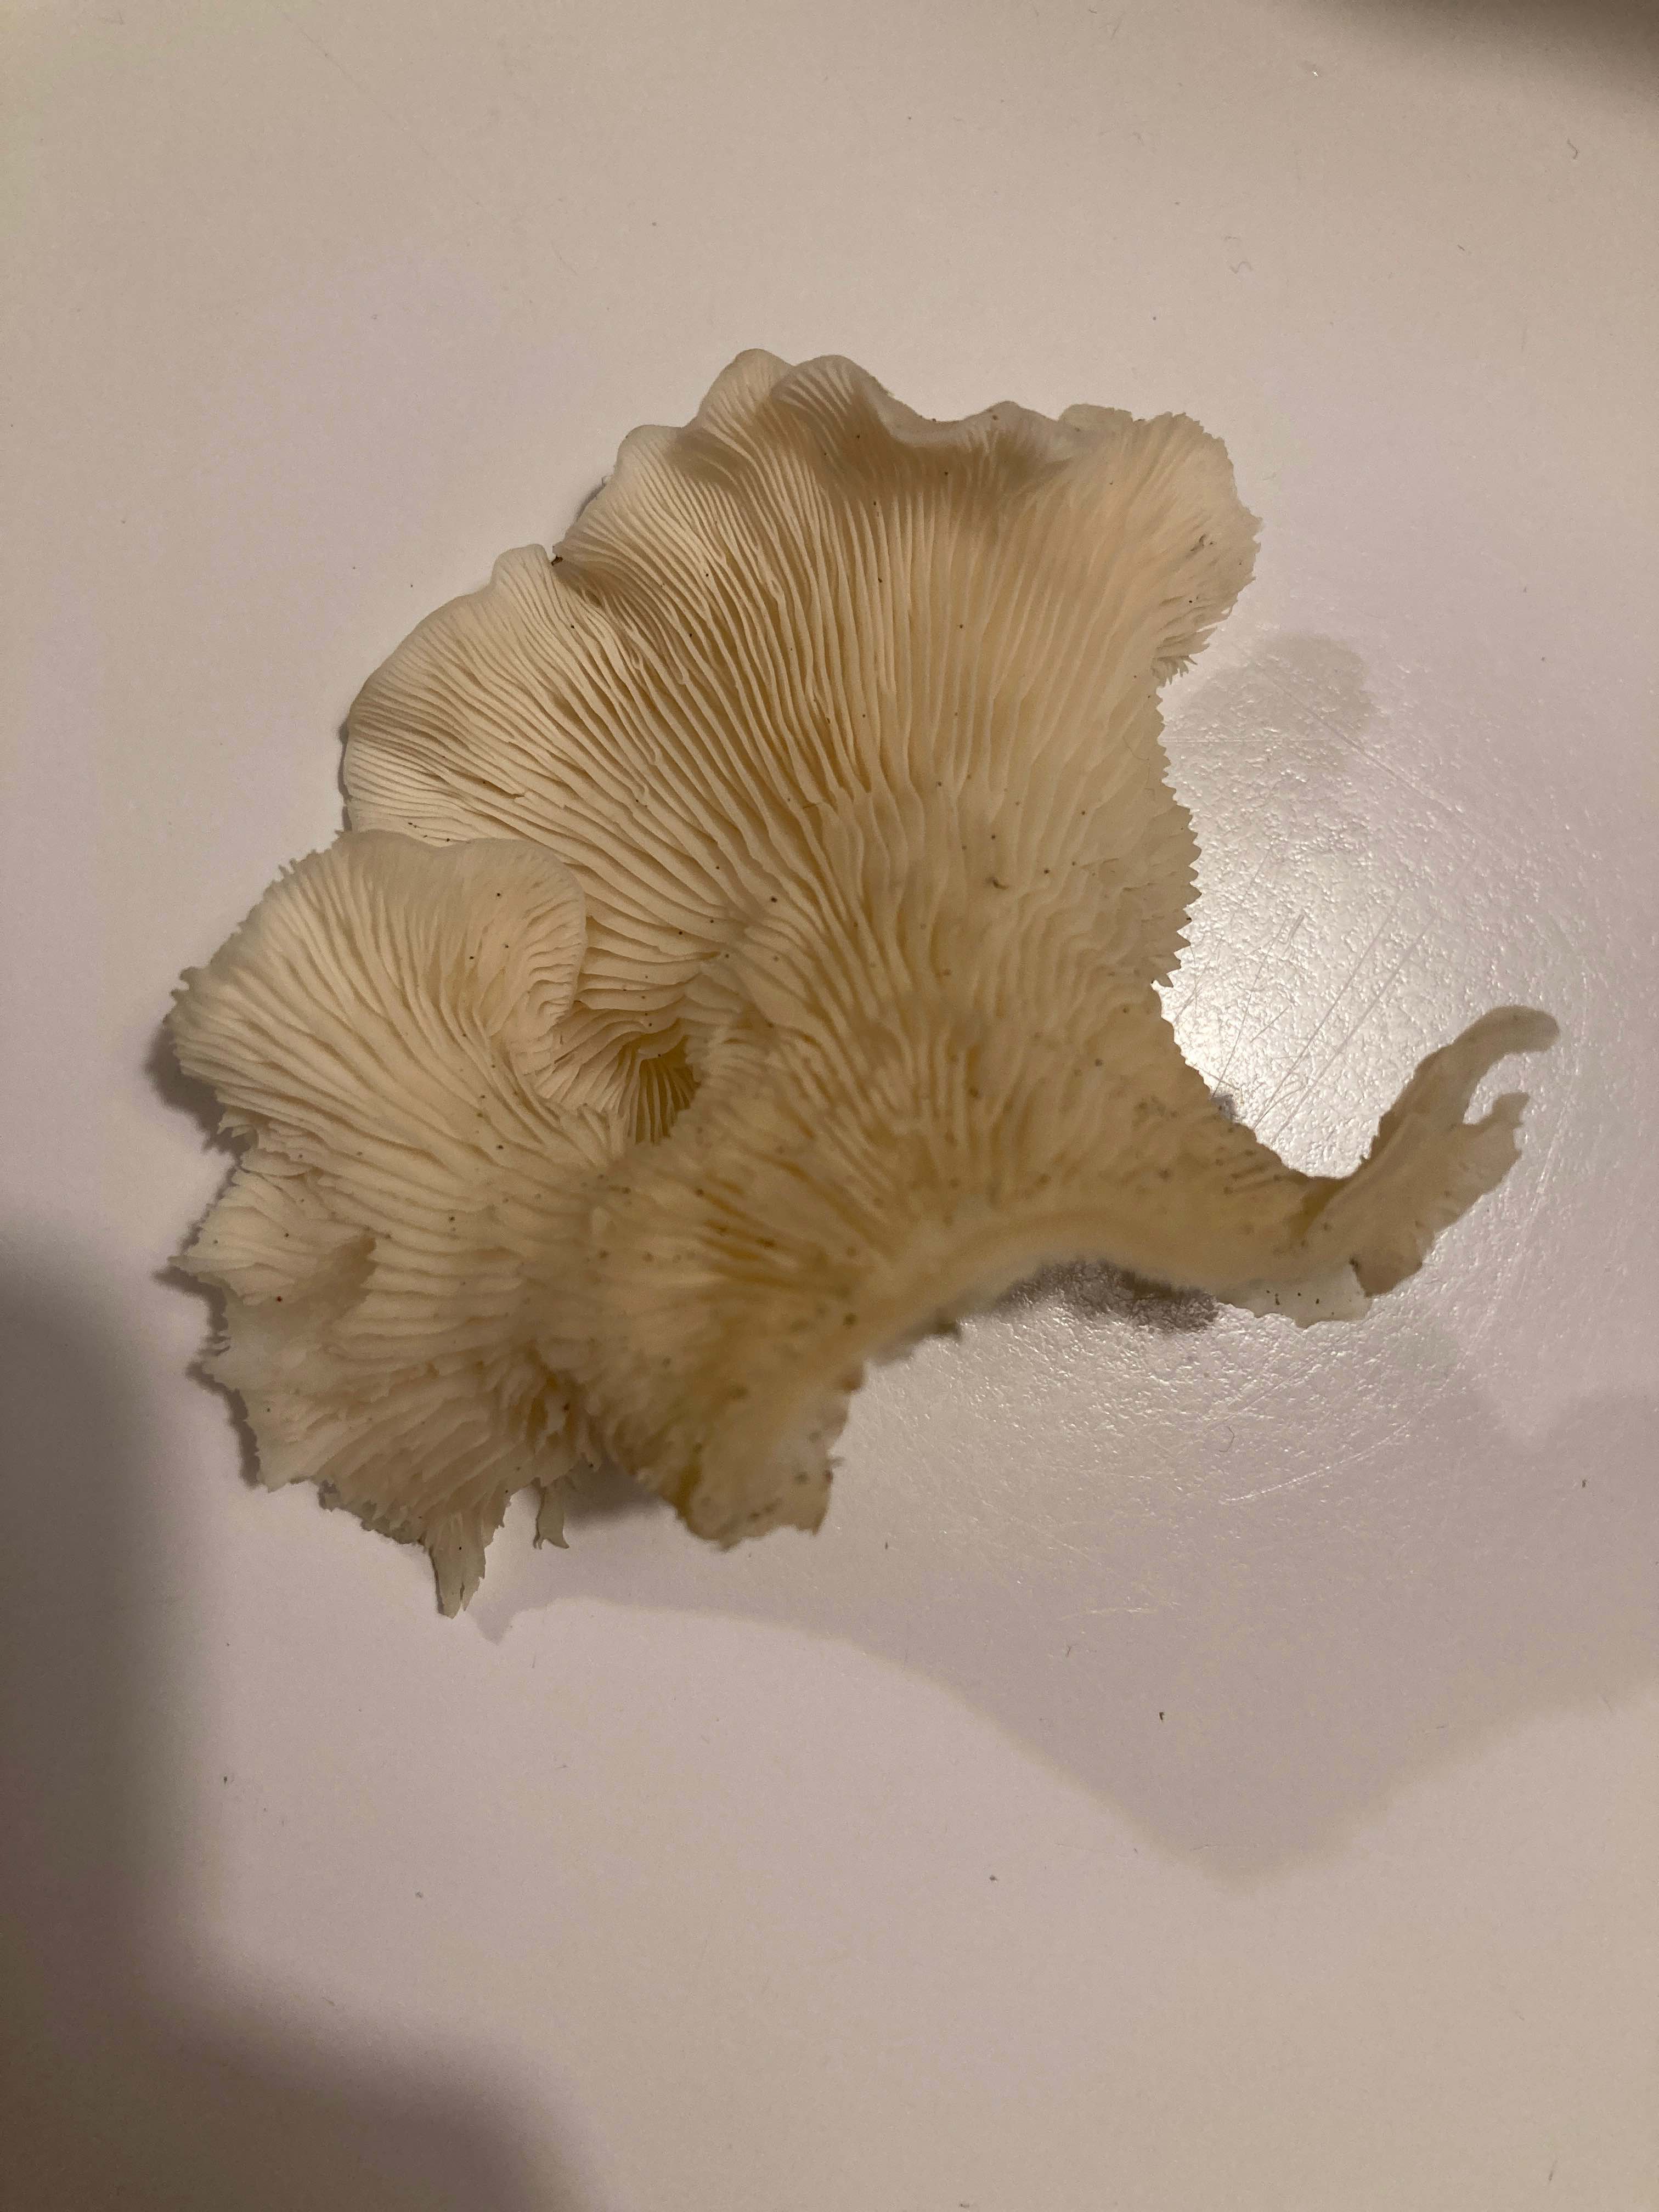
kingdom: Fungi
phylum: Basidiomycota
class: Agaricomycetes
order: Agaricales
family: Marasmiaceae
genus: Pleurocybella
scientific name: Pleurocybella porrigens
